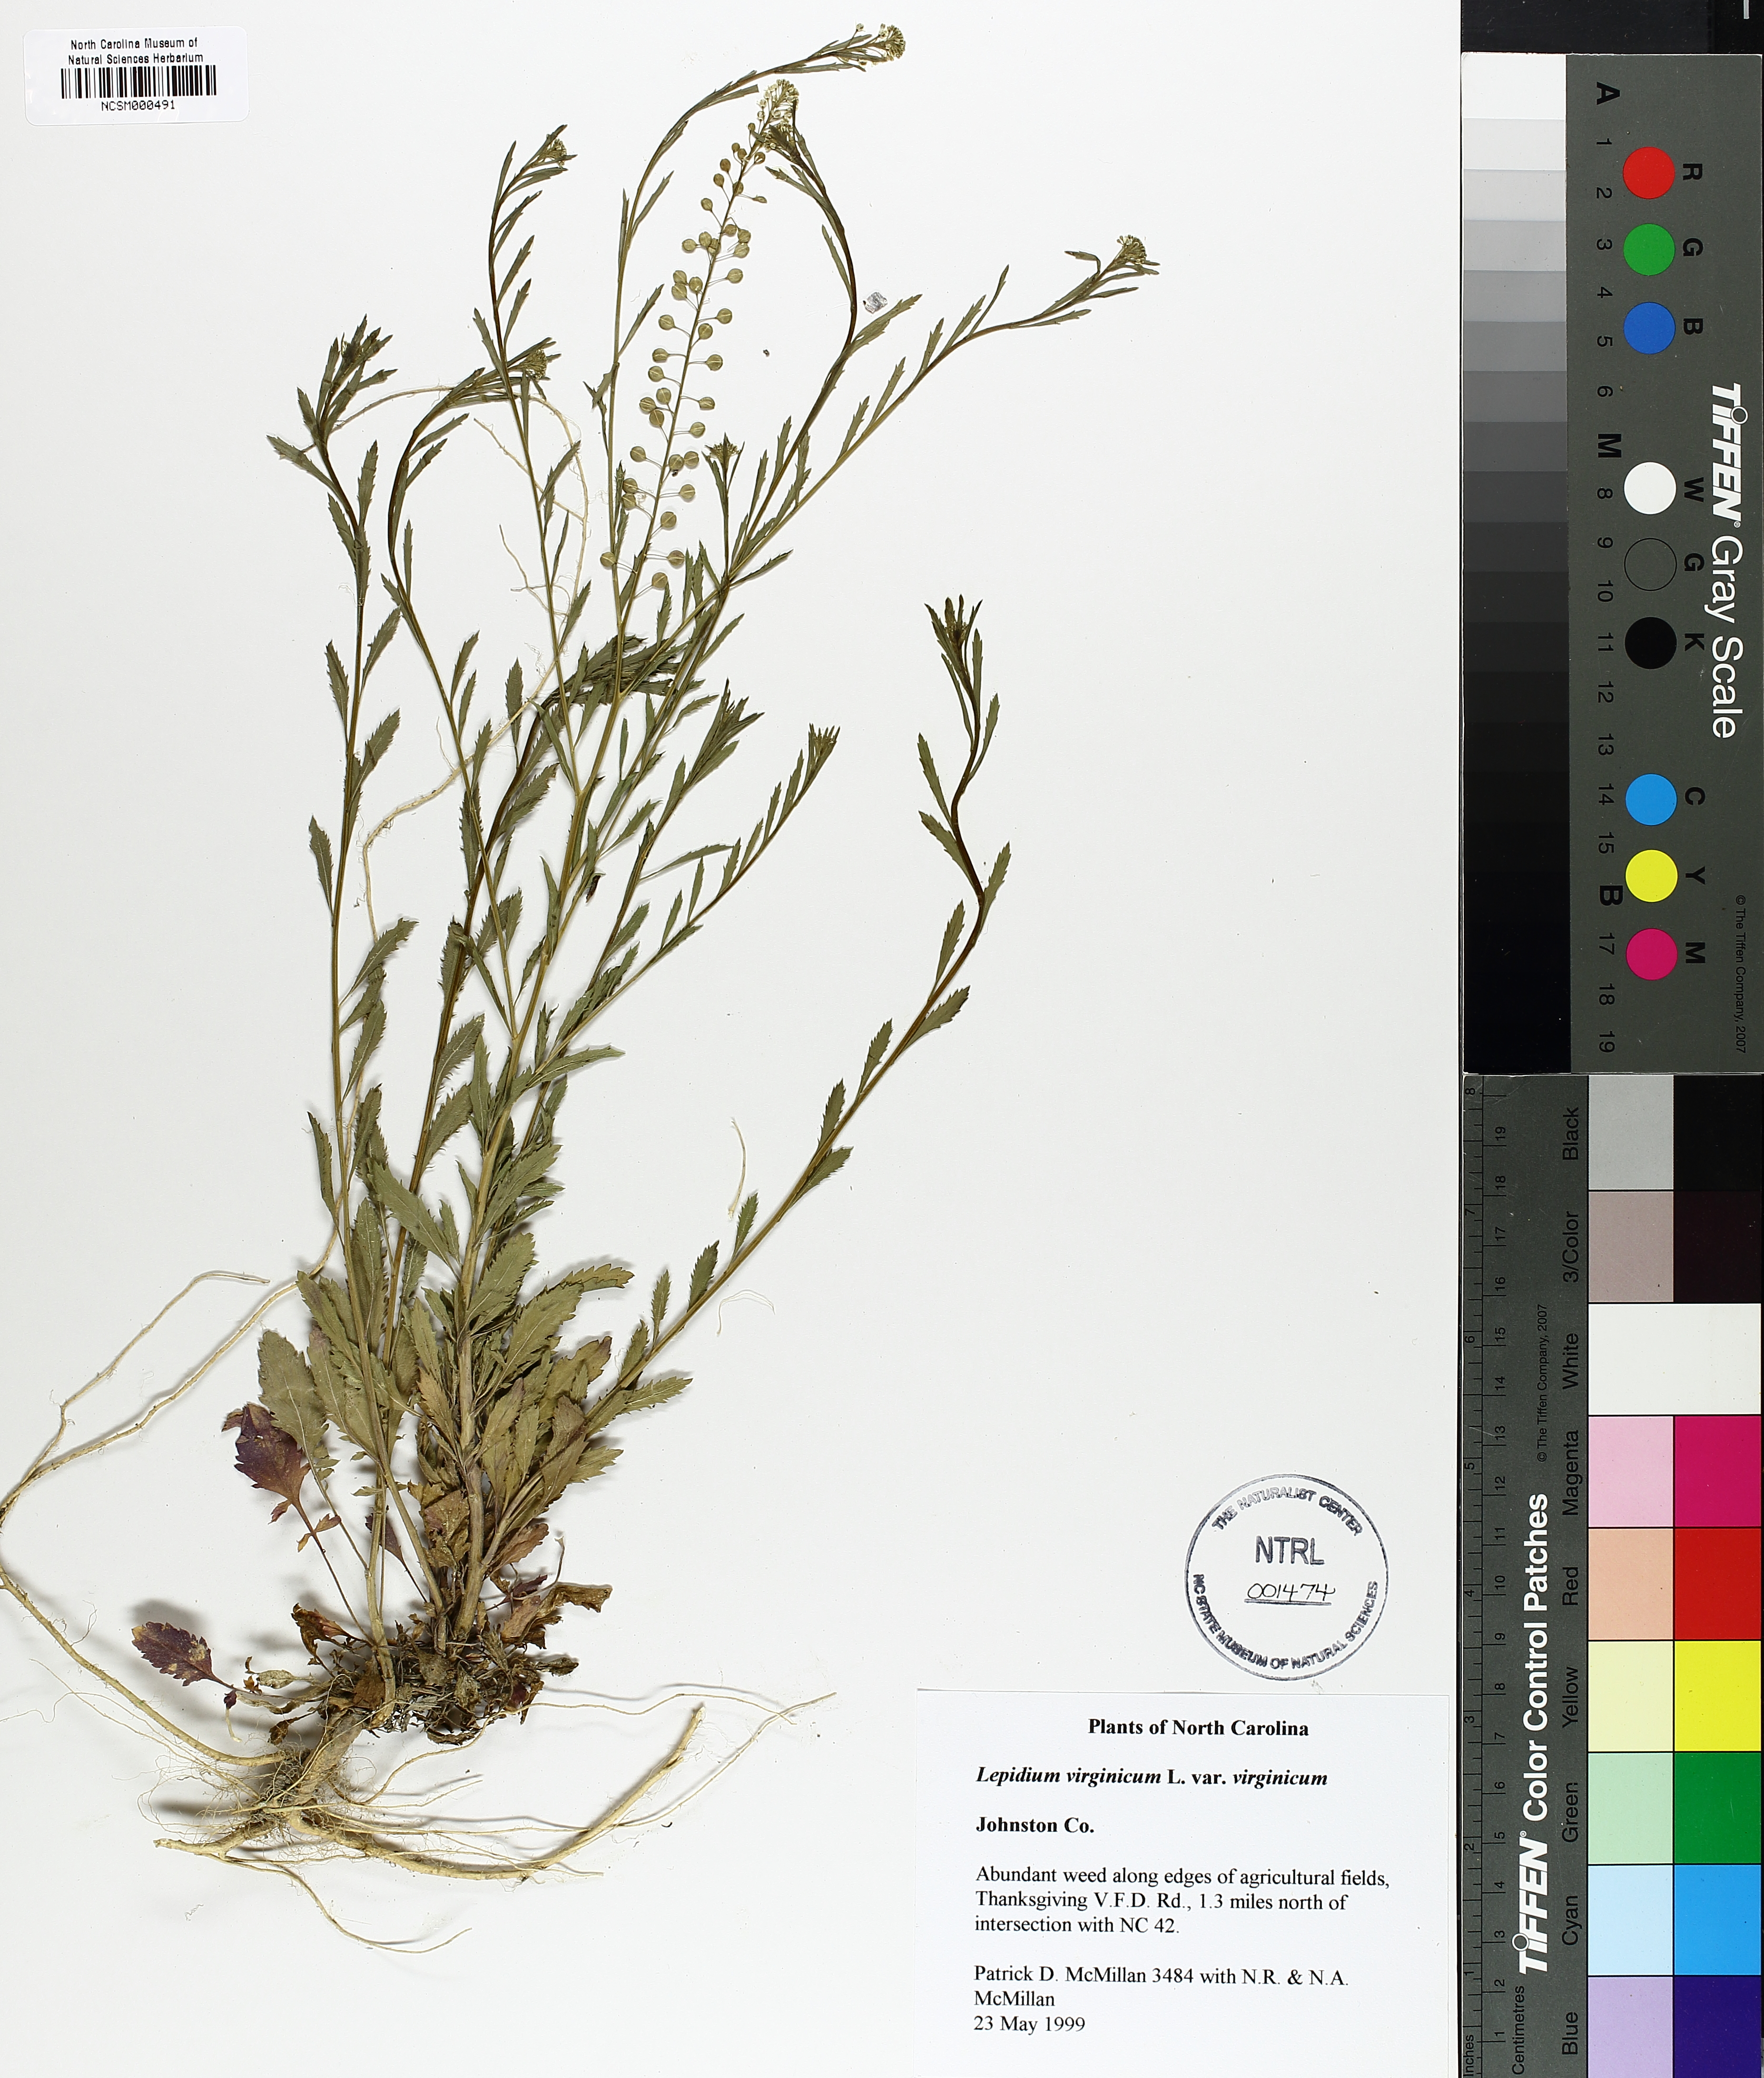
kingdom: Plantae
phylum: Tracheophyta
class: Magnoliopsida
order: Brassicales
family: Brassicaceae
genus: Lepidium
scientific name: Lepidium virginicum
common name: Least pepperwort
